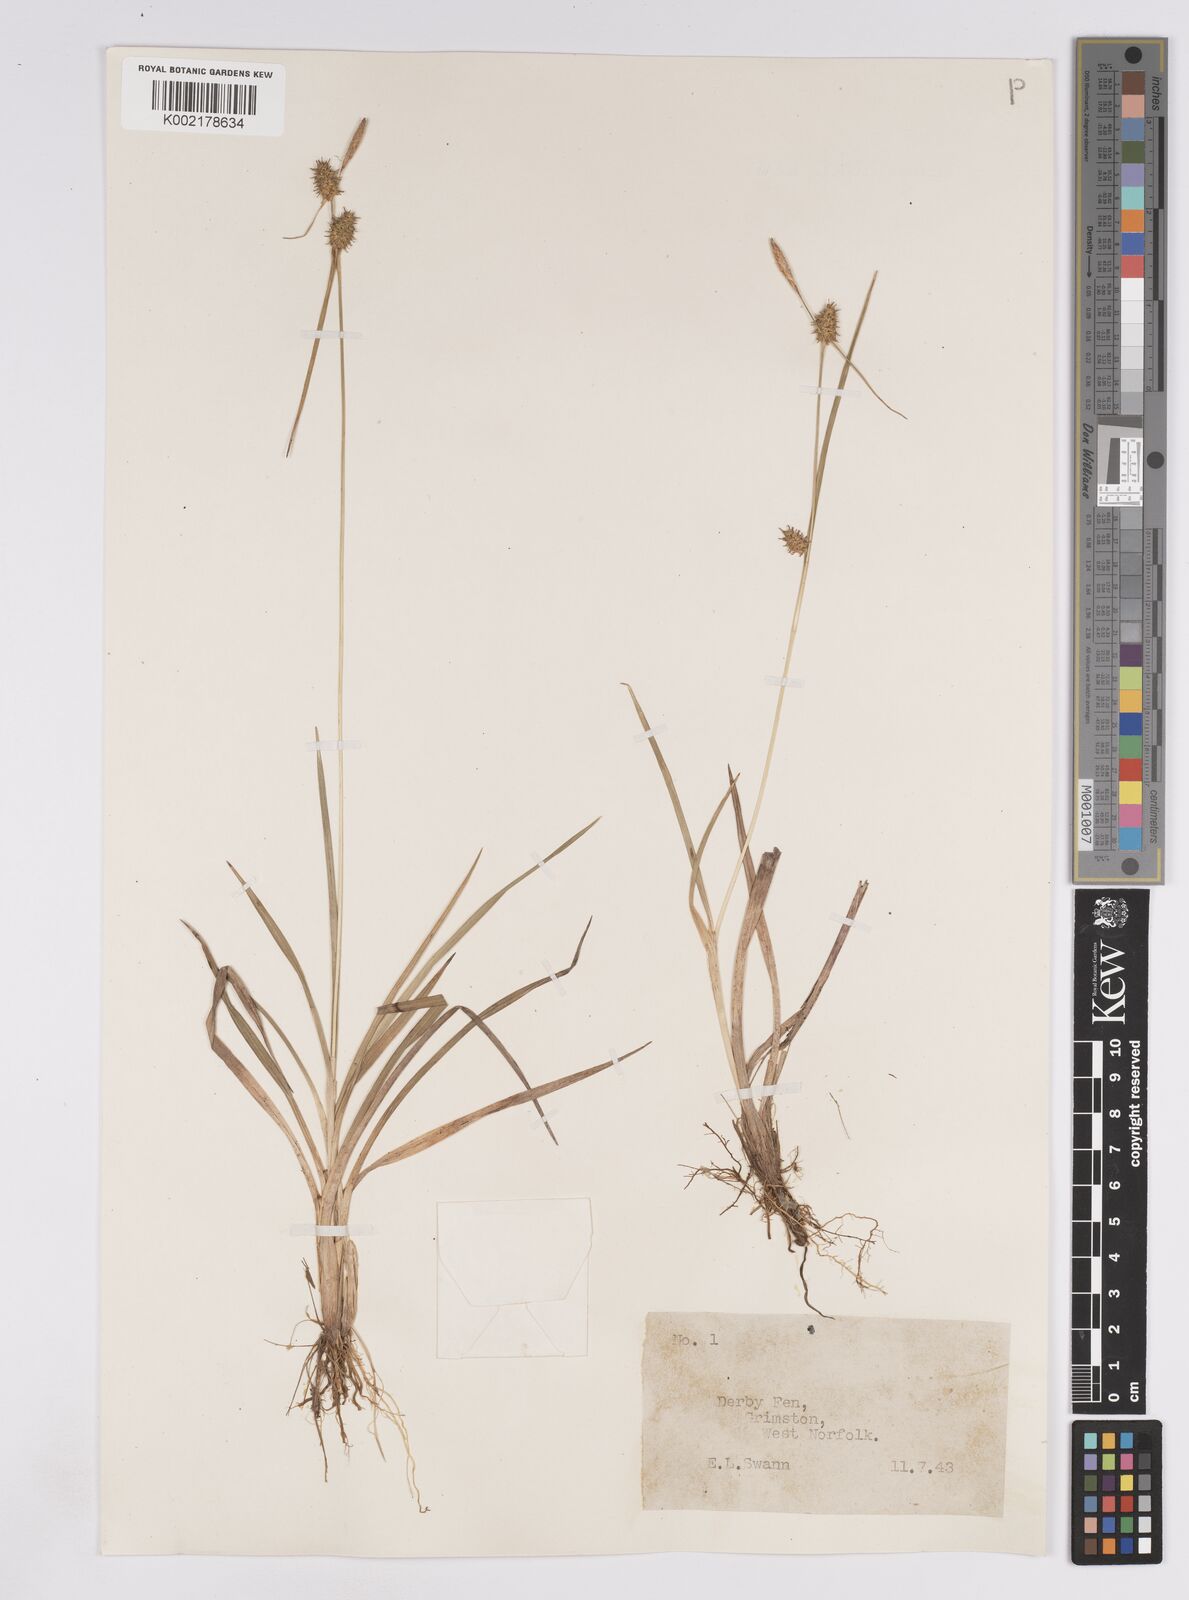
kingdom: Plantae
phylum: Tracheophyta
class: Liliopsida
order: Poales
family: Cyperaceae
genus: Carex
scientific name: Carex lepidocarpa
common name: Long-stalked yellow-sedge
